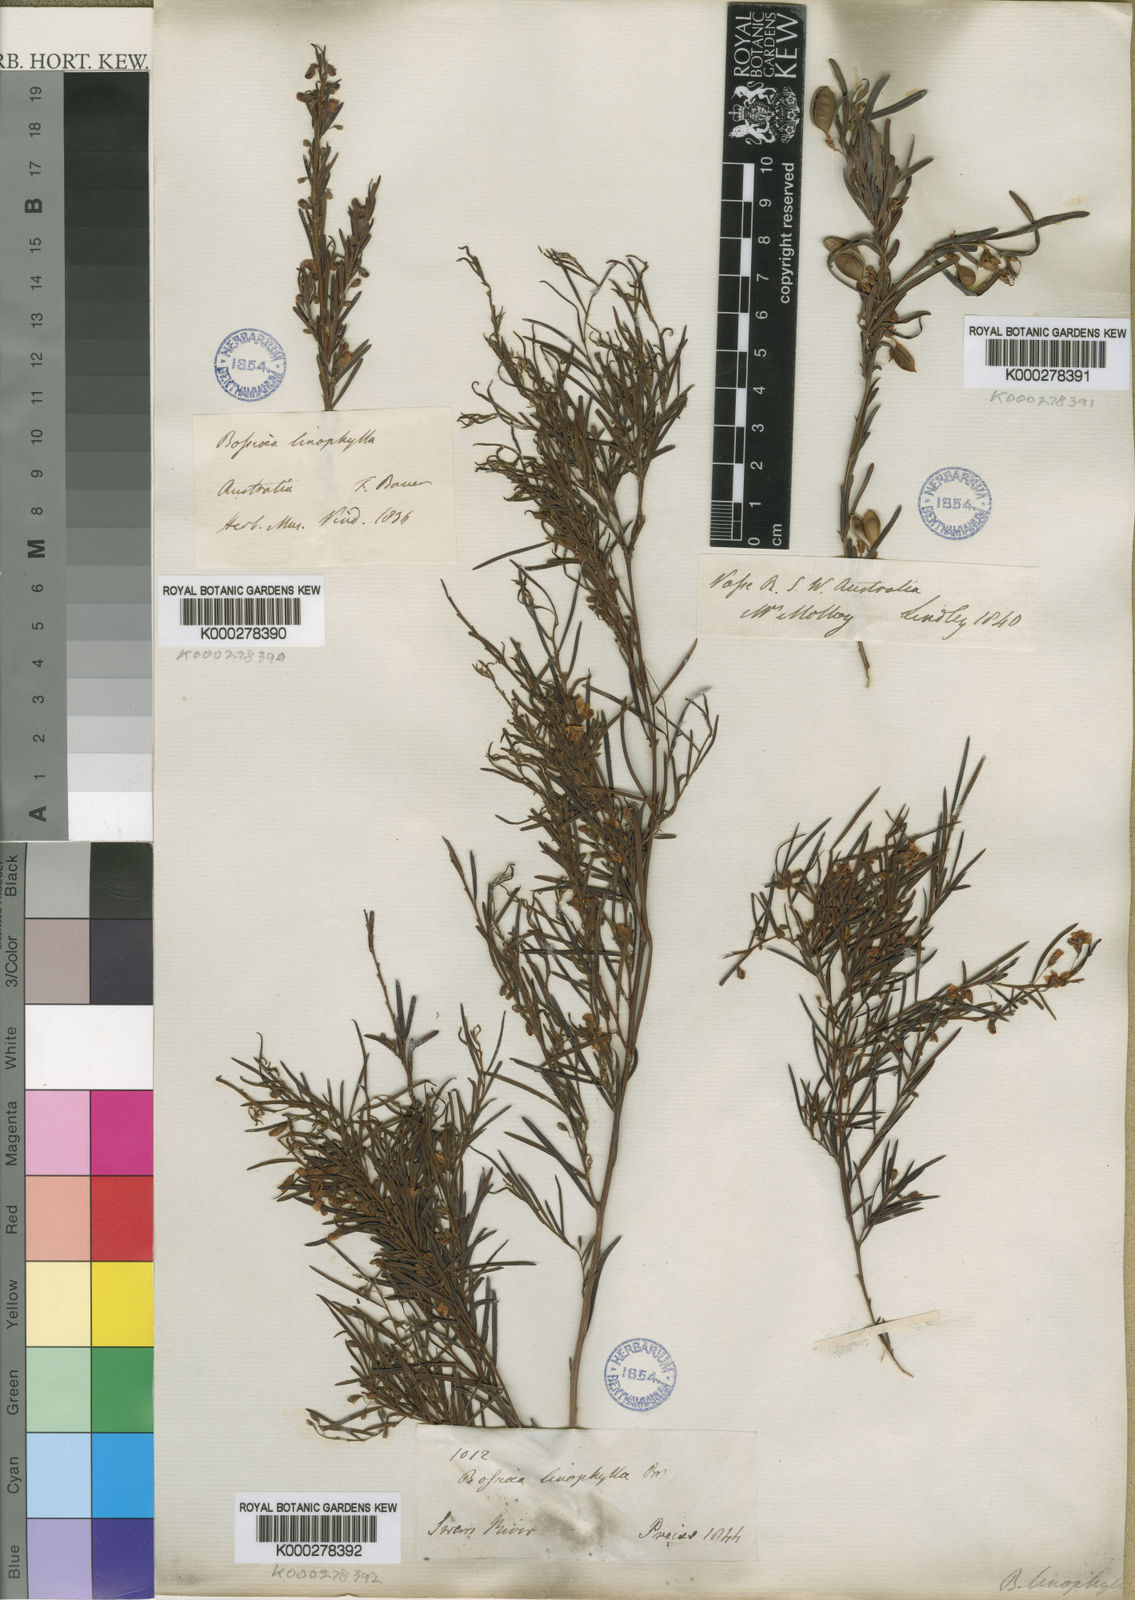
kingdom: Plantae
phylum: Tracheophyta
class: Magnoliopsida
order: Fabales
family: Fabaceae
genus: Bossiaea
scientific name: Bossiaea linophylla
